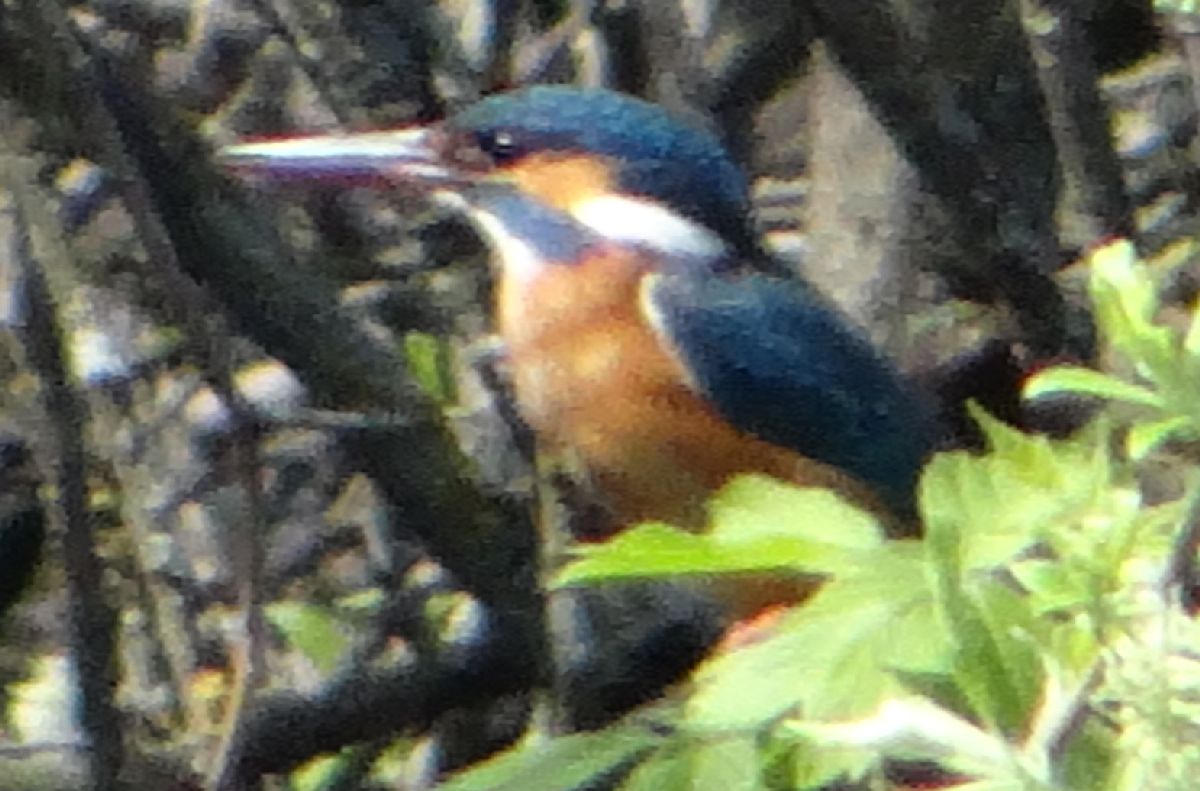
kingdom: Animalia
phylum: Chordata
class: Aves
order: Coraciiformes
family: Alcedinidae
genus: Alcedo
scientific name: Alcedo atthis
